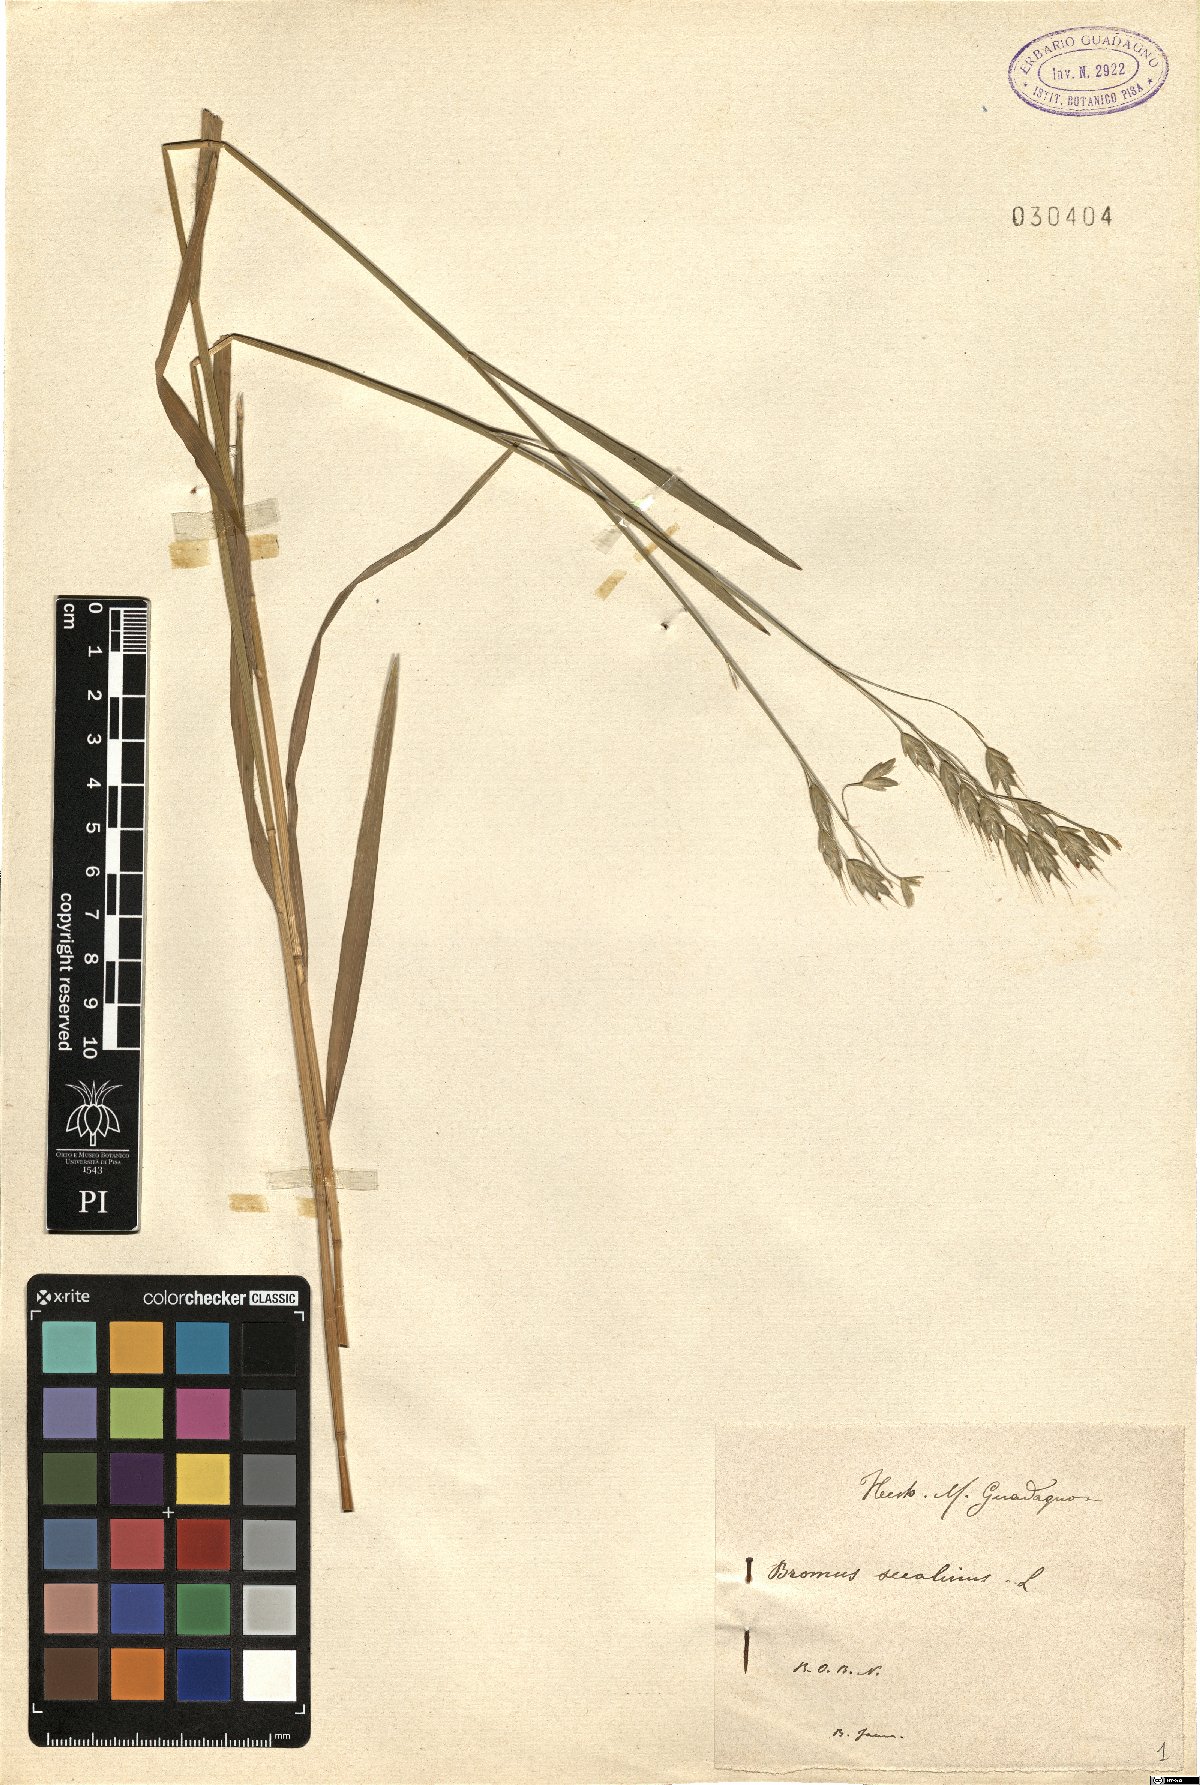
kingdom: Plantae
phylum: Tracheophyta
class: Liliopsida
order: Poales
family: Poaceae
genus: Bromus
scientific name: Bromus secalinus
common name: Rye brome
